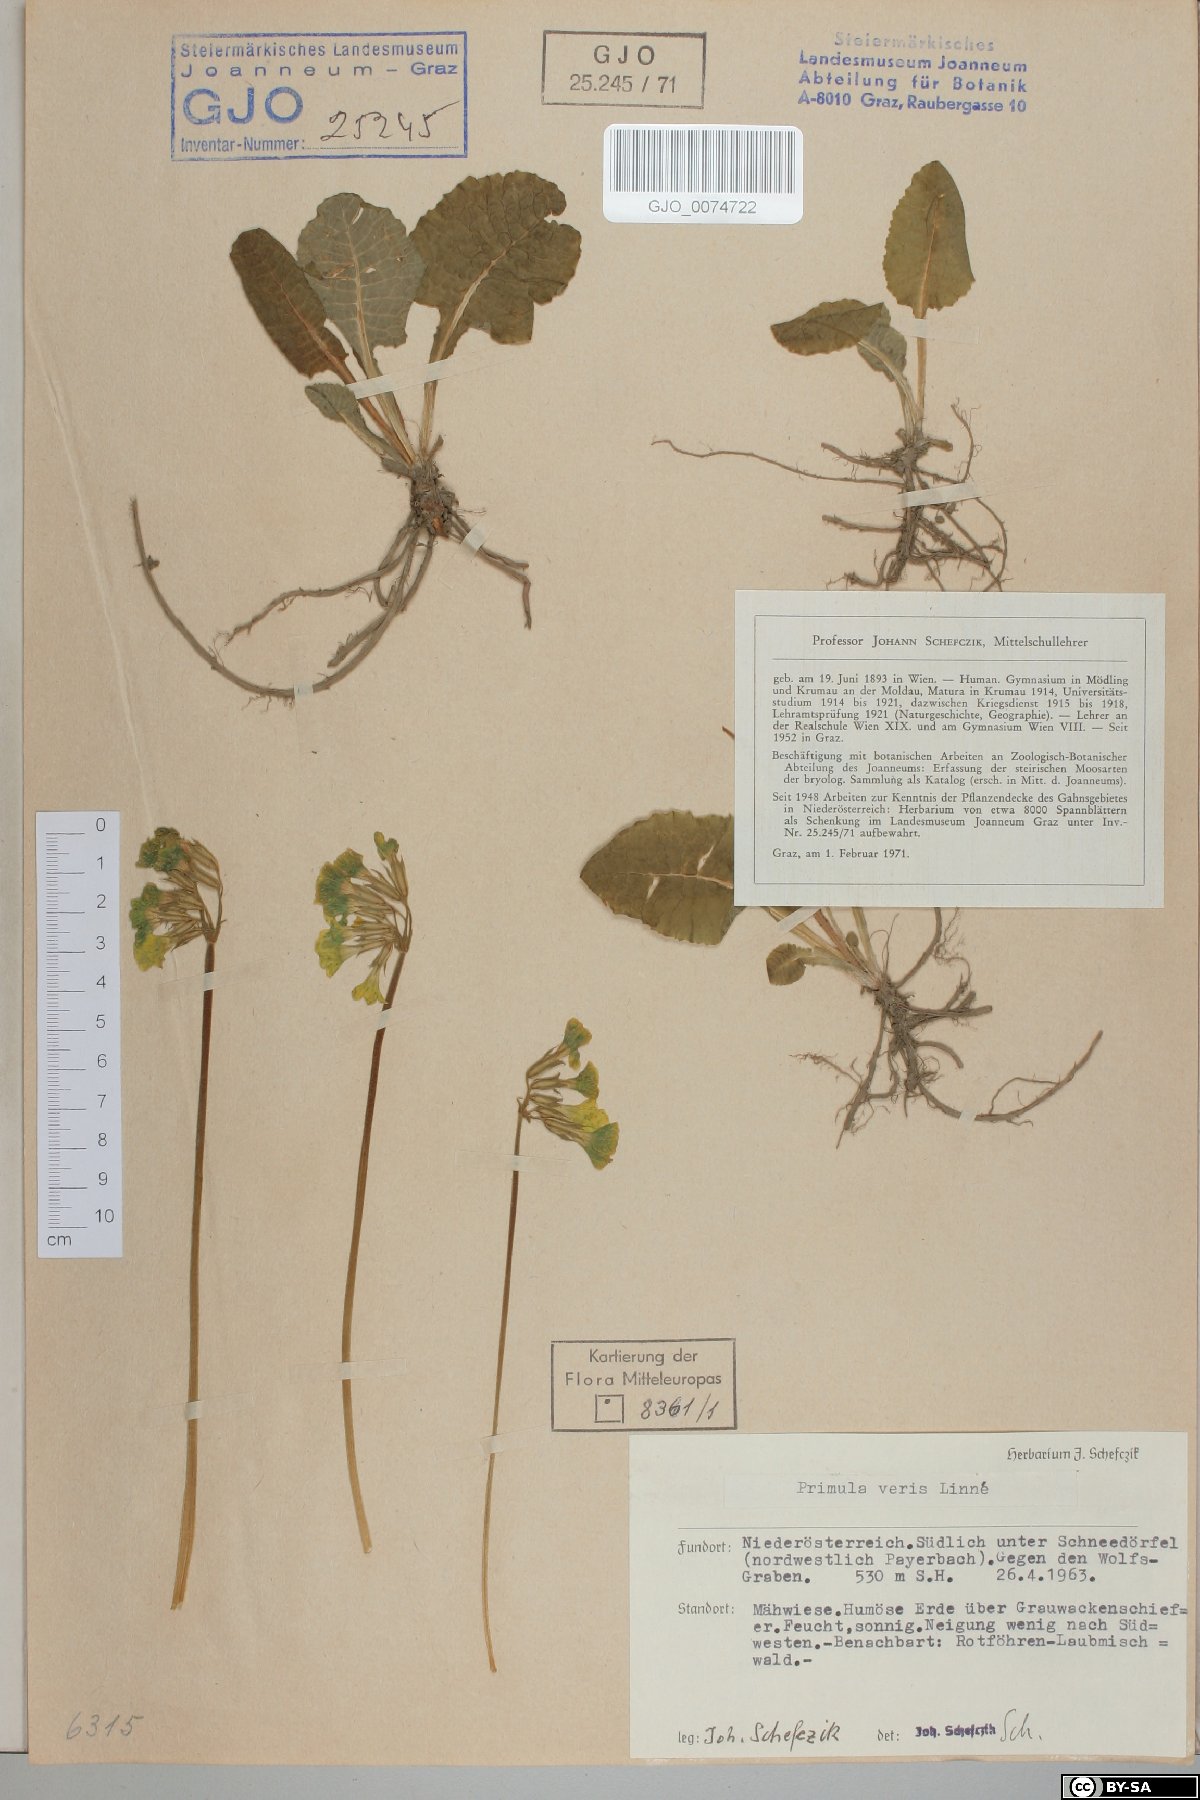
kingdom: Plantae
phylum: Tracheophyta
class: Magnoliopsida
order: Ericales
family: Primulaceae
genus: Primula
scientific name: Primula veris
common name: Cowslip
